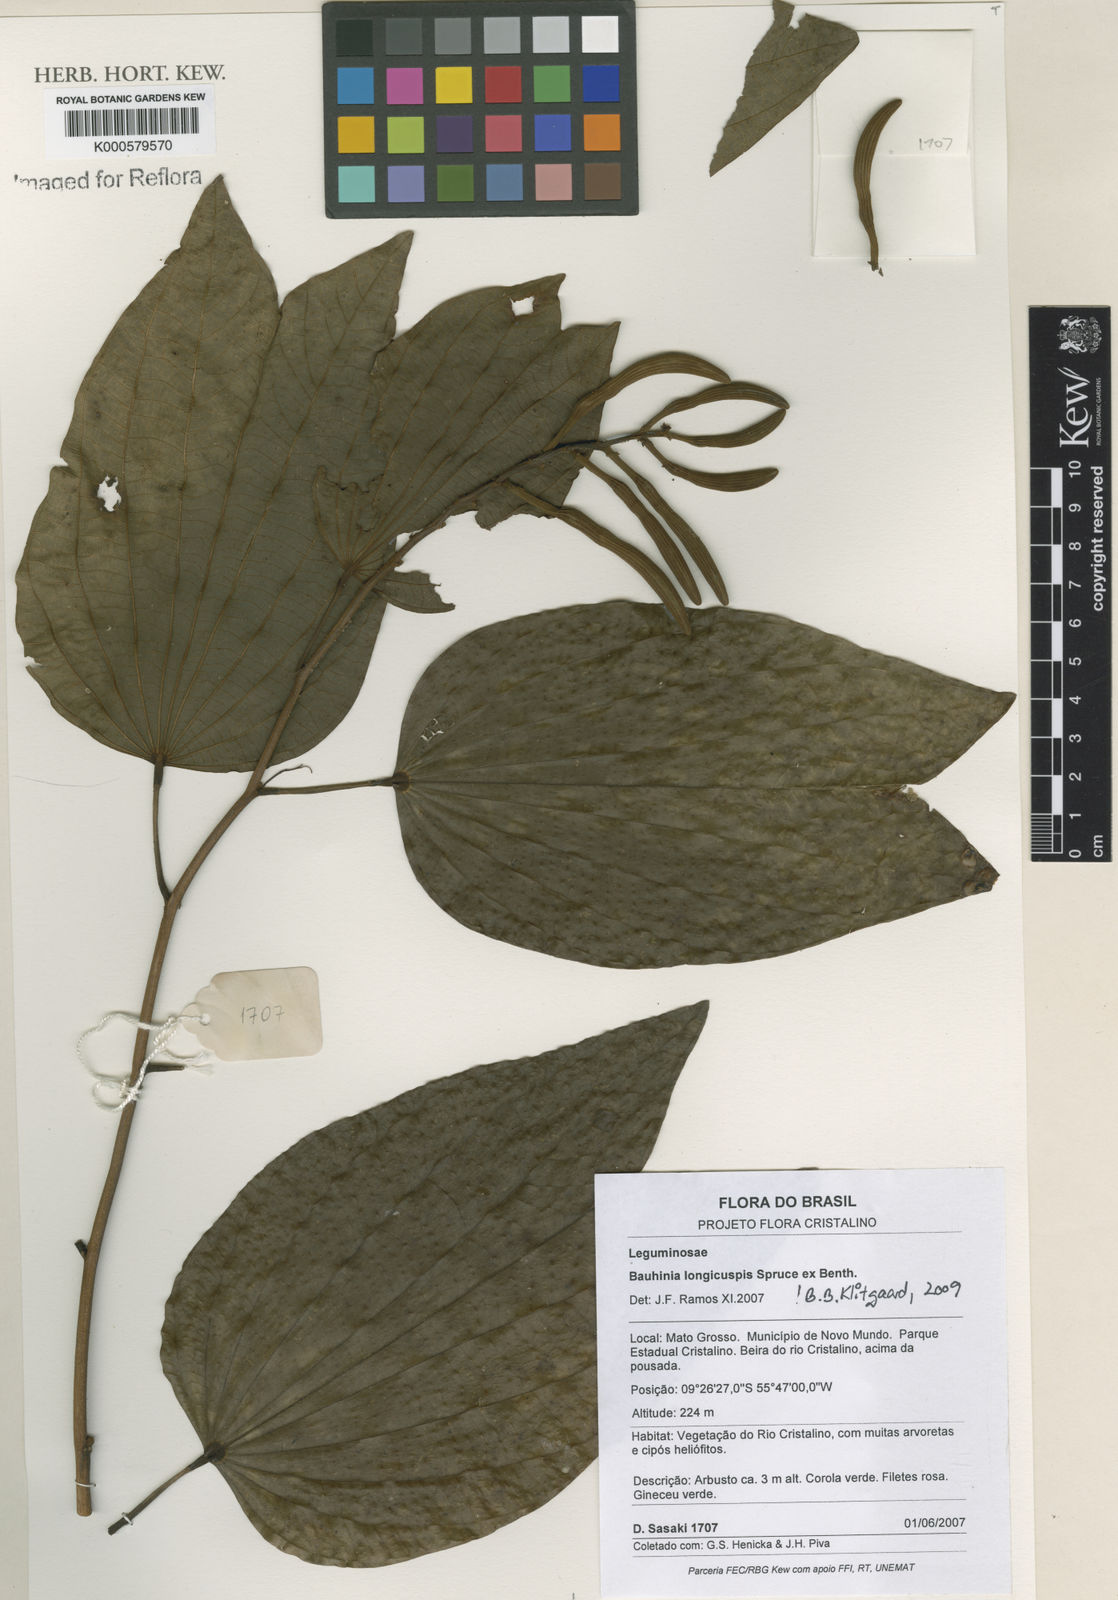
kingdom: Plantae
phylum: Tracheophyta
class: Magnoliopsida
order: Fabales
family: Fabaceae
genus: Bauhinia
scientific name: Bauhinia longicuspis
